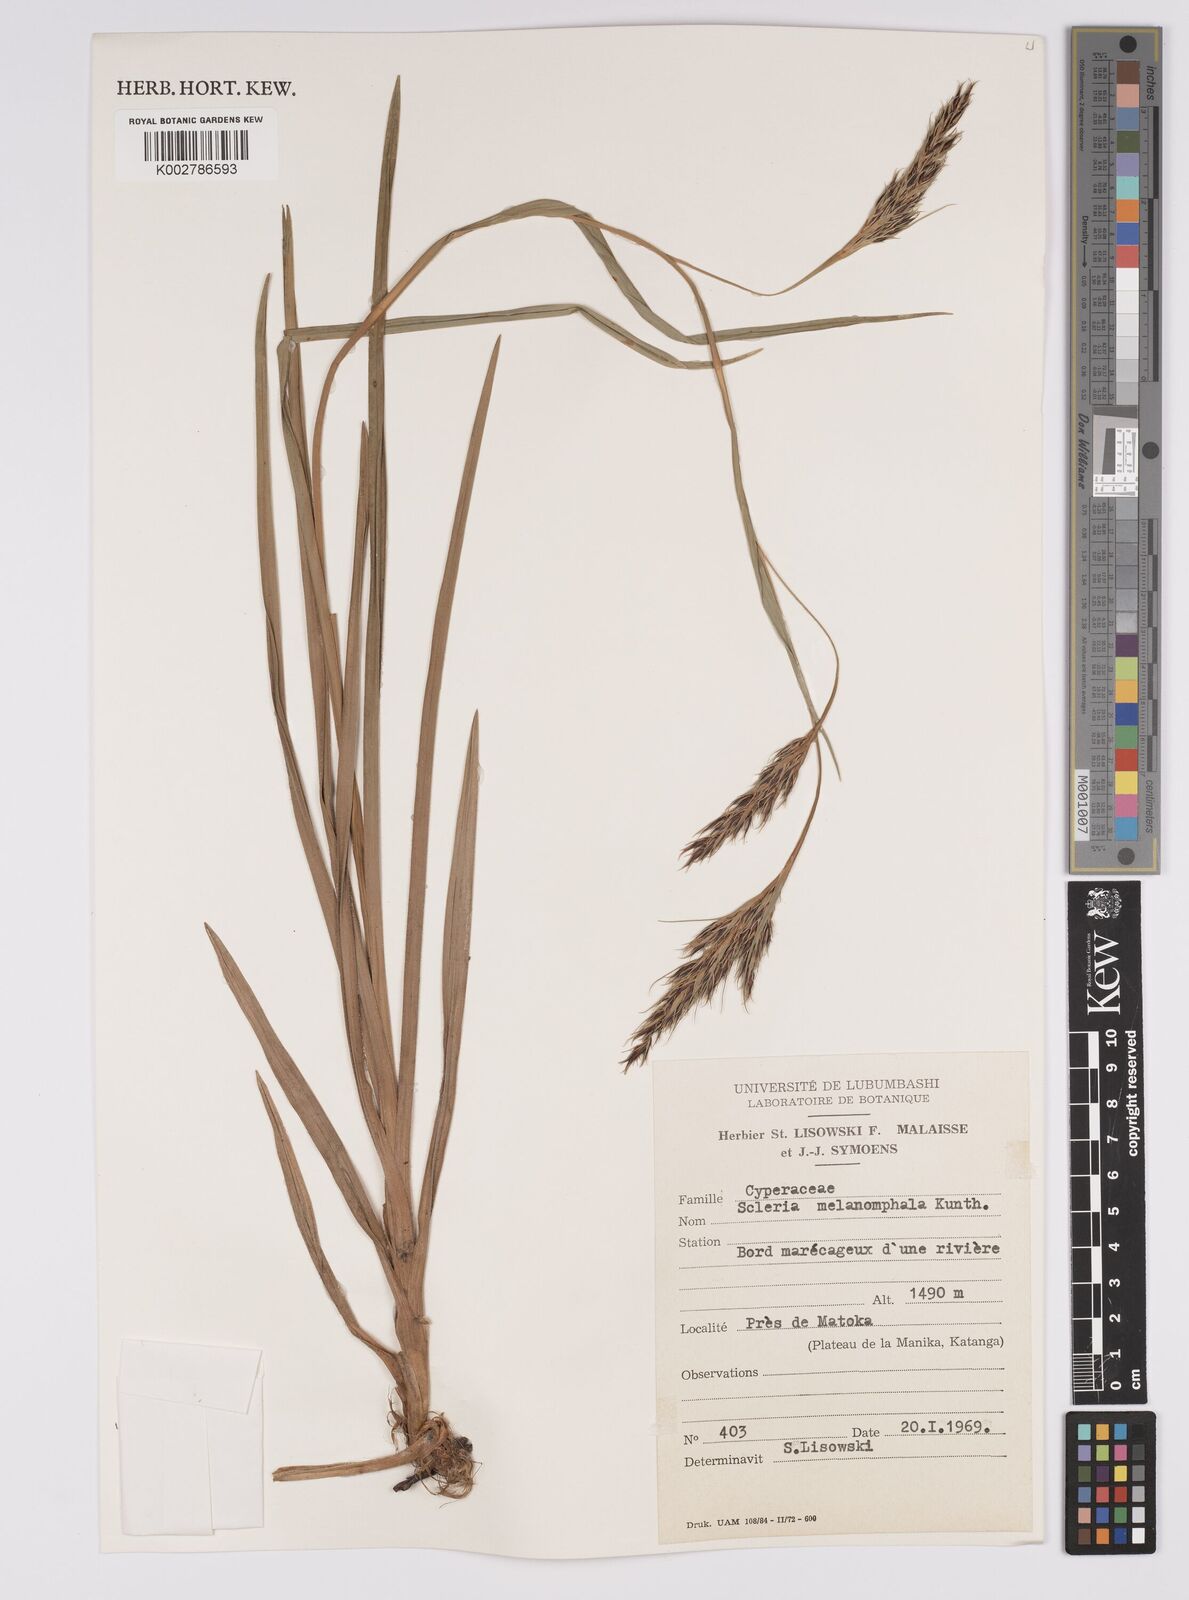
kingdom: Plantae
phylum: Tracheophyta
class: Liliopsida
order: Poales
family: Cyperaceae
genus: Scleria
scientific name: Scleria melanomphala
